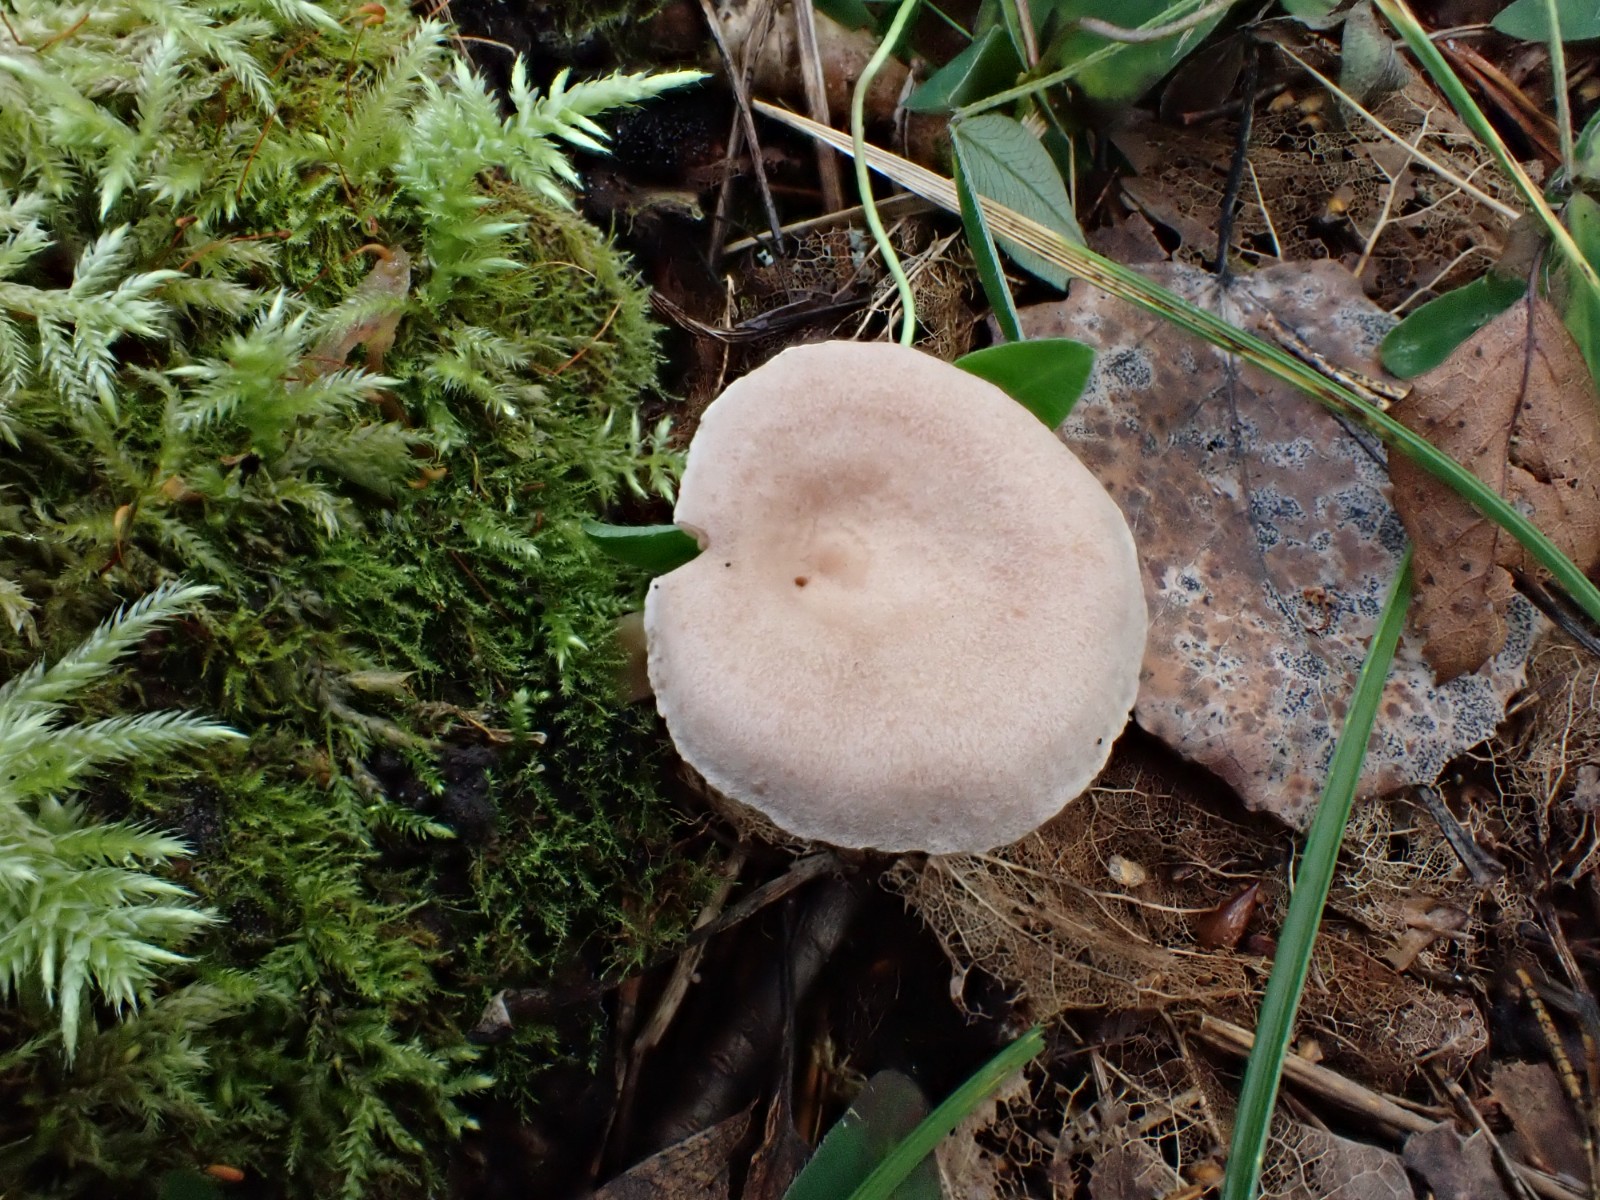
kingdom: Fungi
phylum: Basidiomycota
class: Agaricomycetes
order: Russulales
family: Russulaceae
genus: Lactarius
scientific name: Lactarius glyciosmus
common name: kokos-mælkehat
